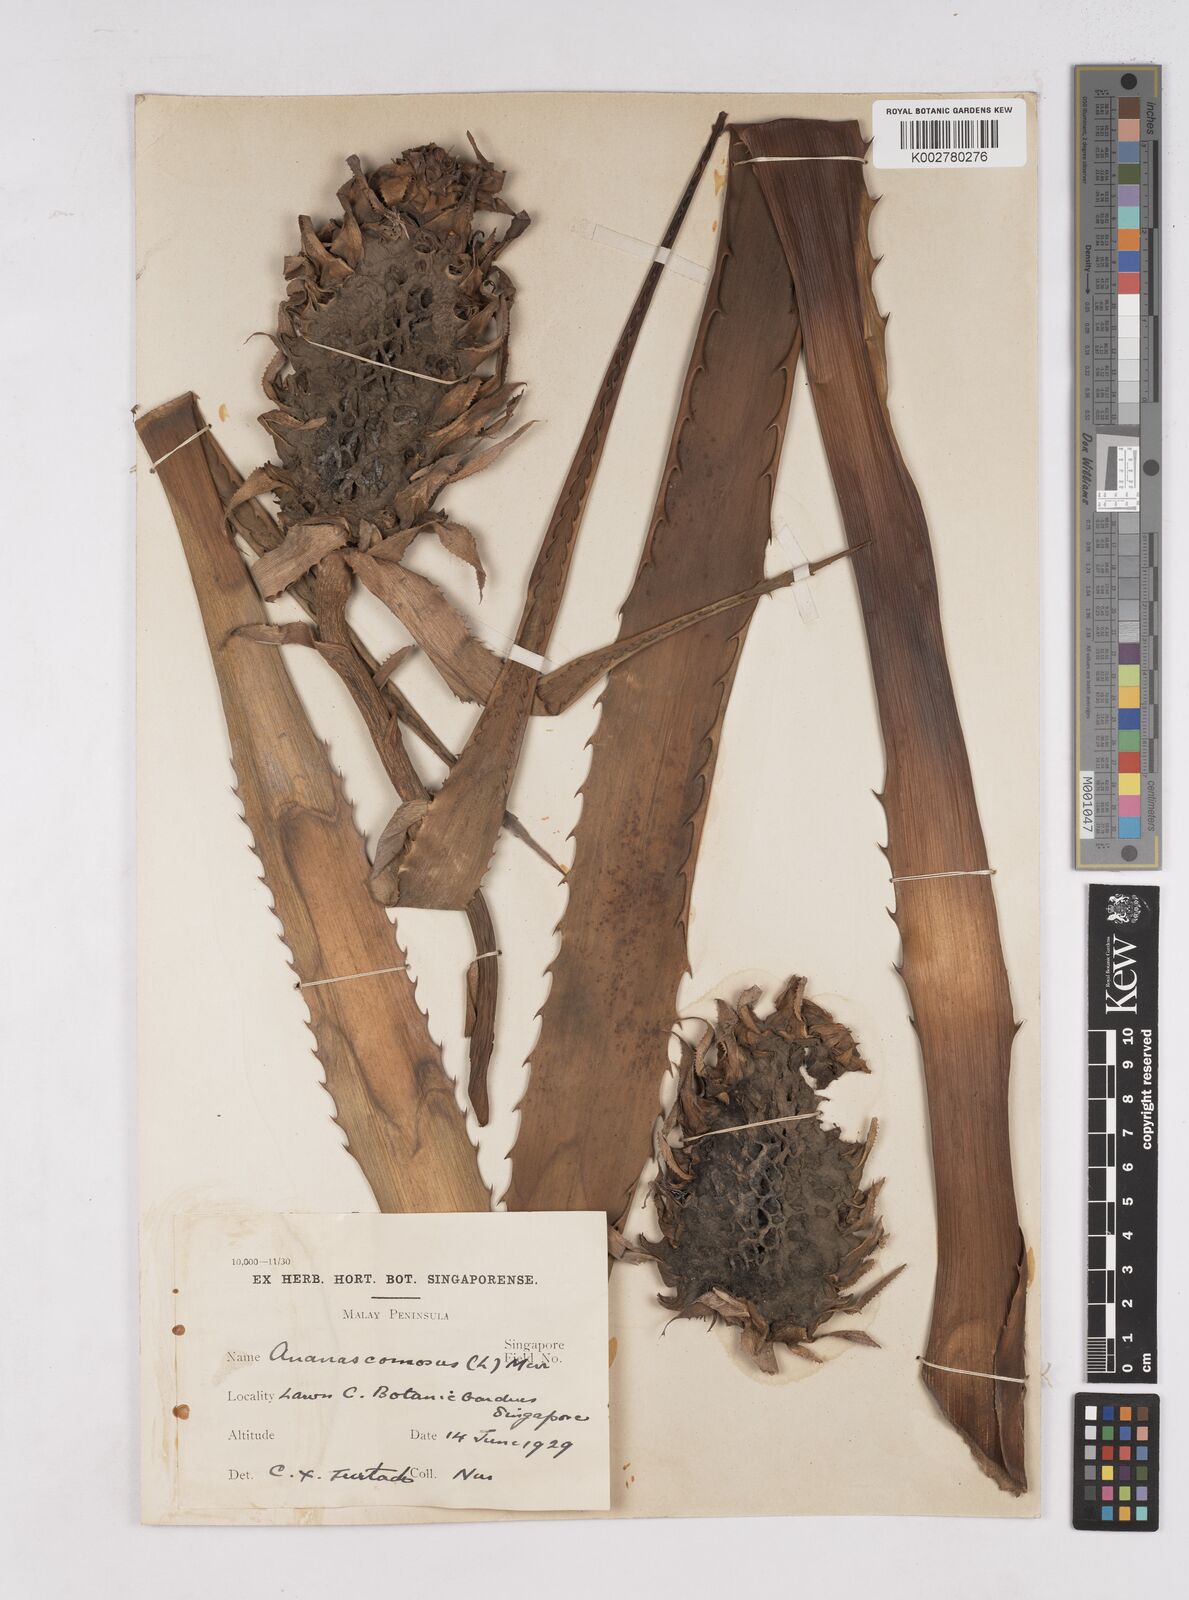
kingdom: Plantae
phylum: Tracheophyta
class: Liliopsida
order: Poales
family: Bromeliaceae
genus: Ananas
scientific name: Ananas comosus
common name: Pineapple
